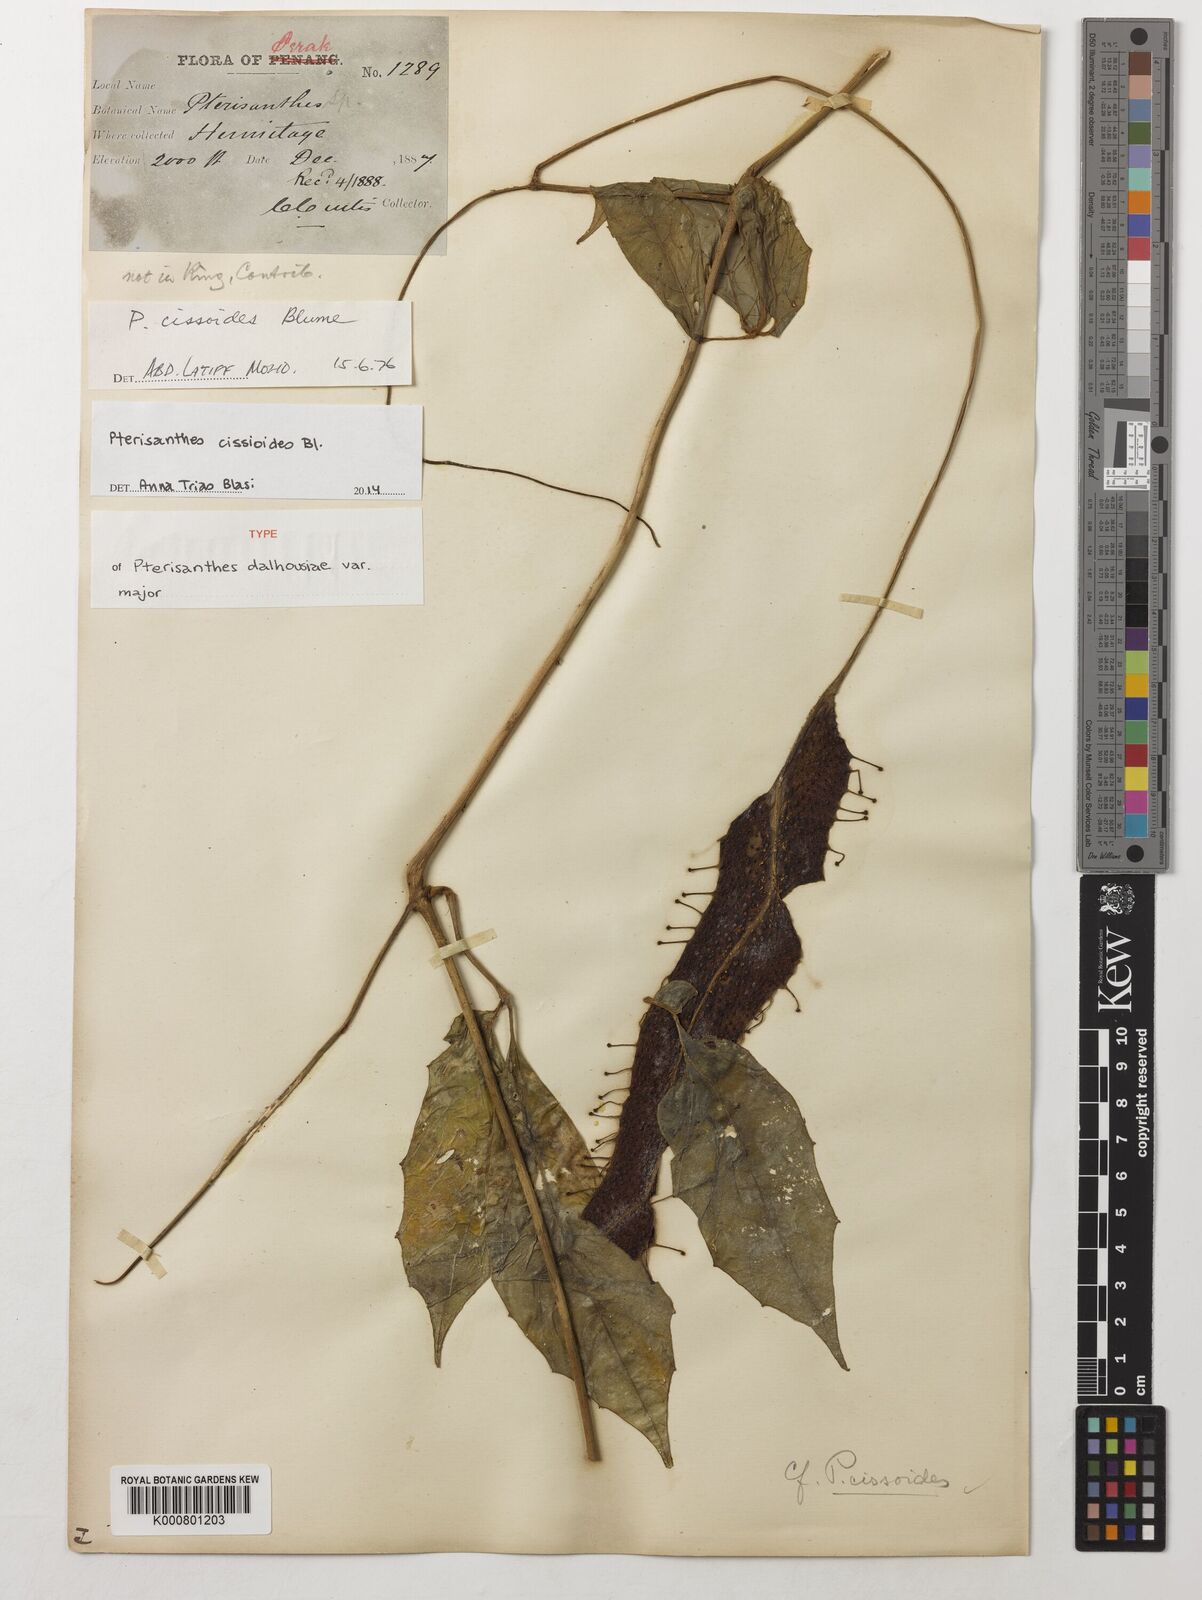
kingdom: Plantae
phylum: Tracheophyta
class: Magnoliopsida
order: Vitales
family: Vitaceae
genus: Pterisanthes
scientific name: Pterisanthes cissioides
